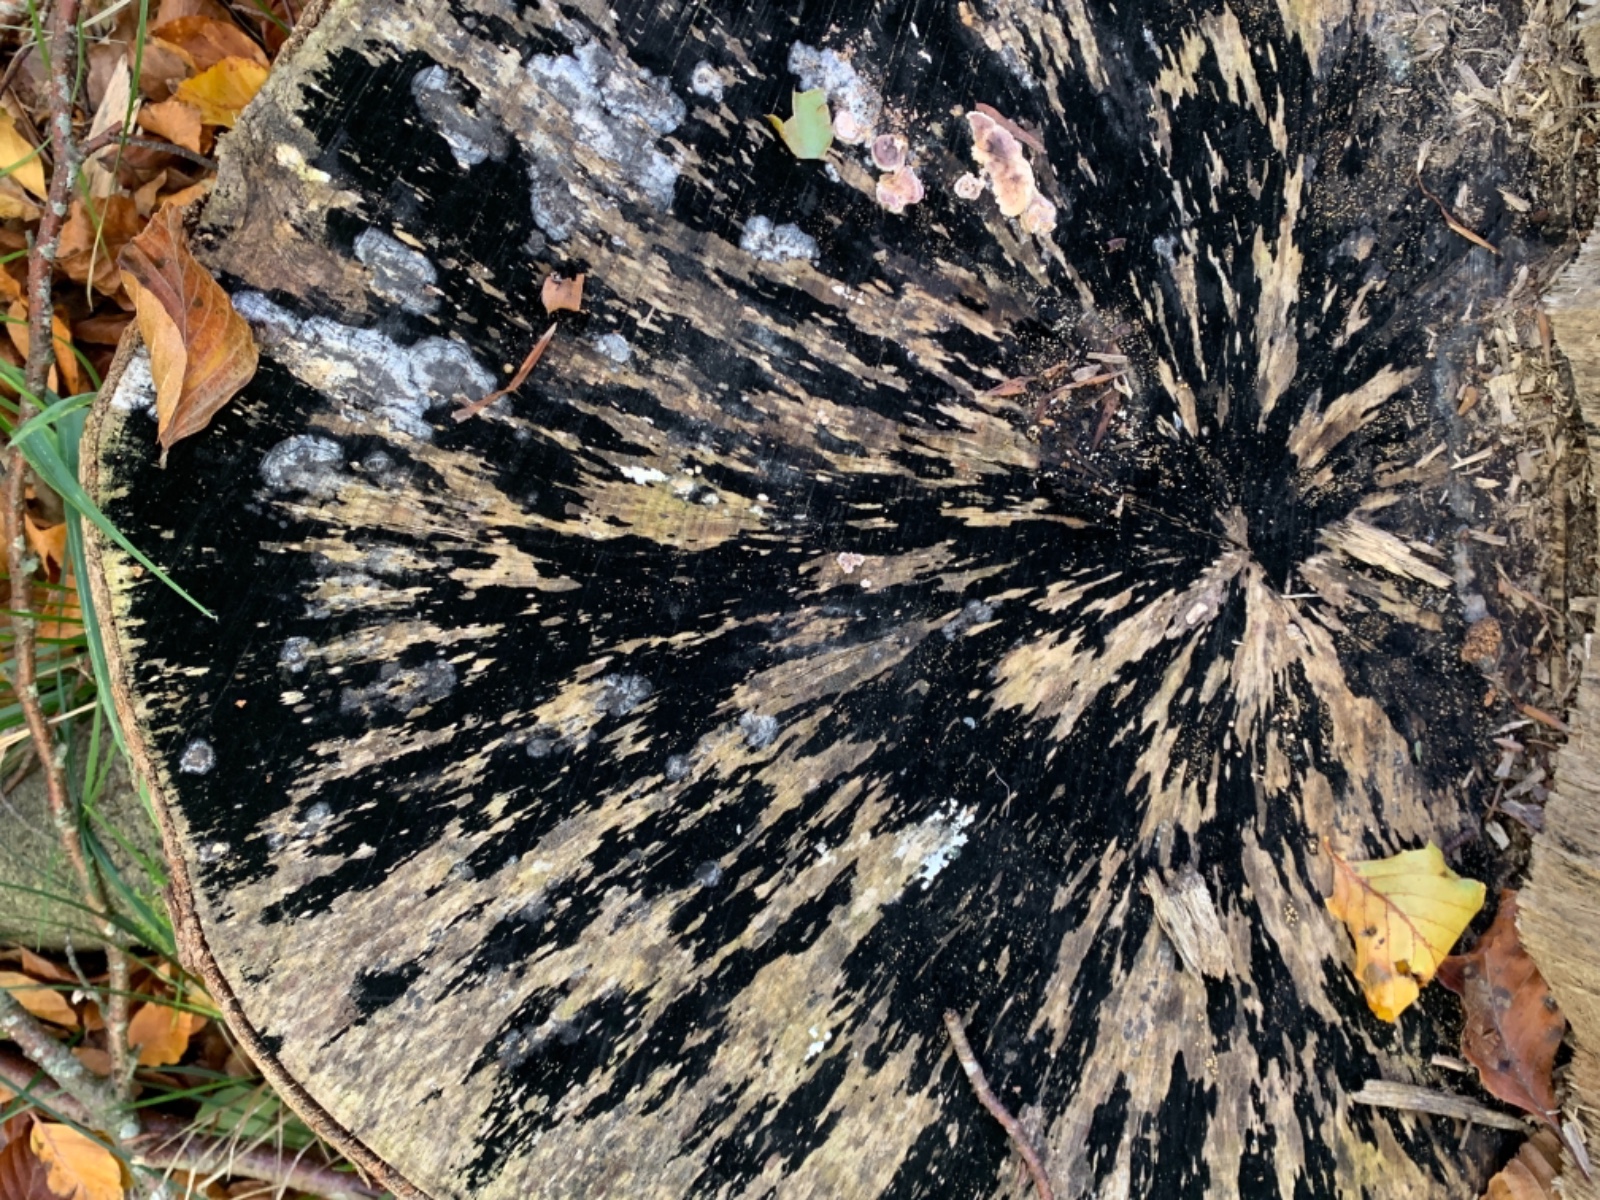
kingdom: Fungi
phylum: Ascomycota
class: Leotiomycetes
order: Helotiales
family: Helotiaceae
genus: Bispora
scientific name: Bispora pallescens
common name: måtte-snitskive
